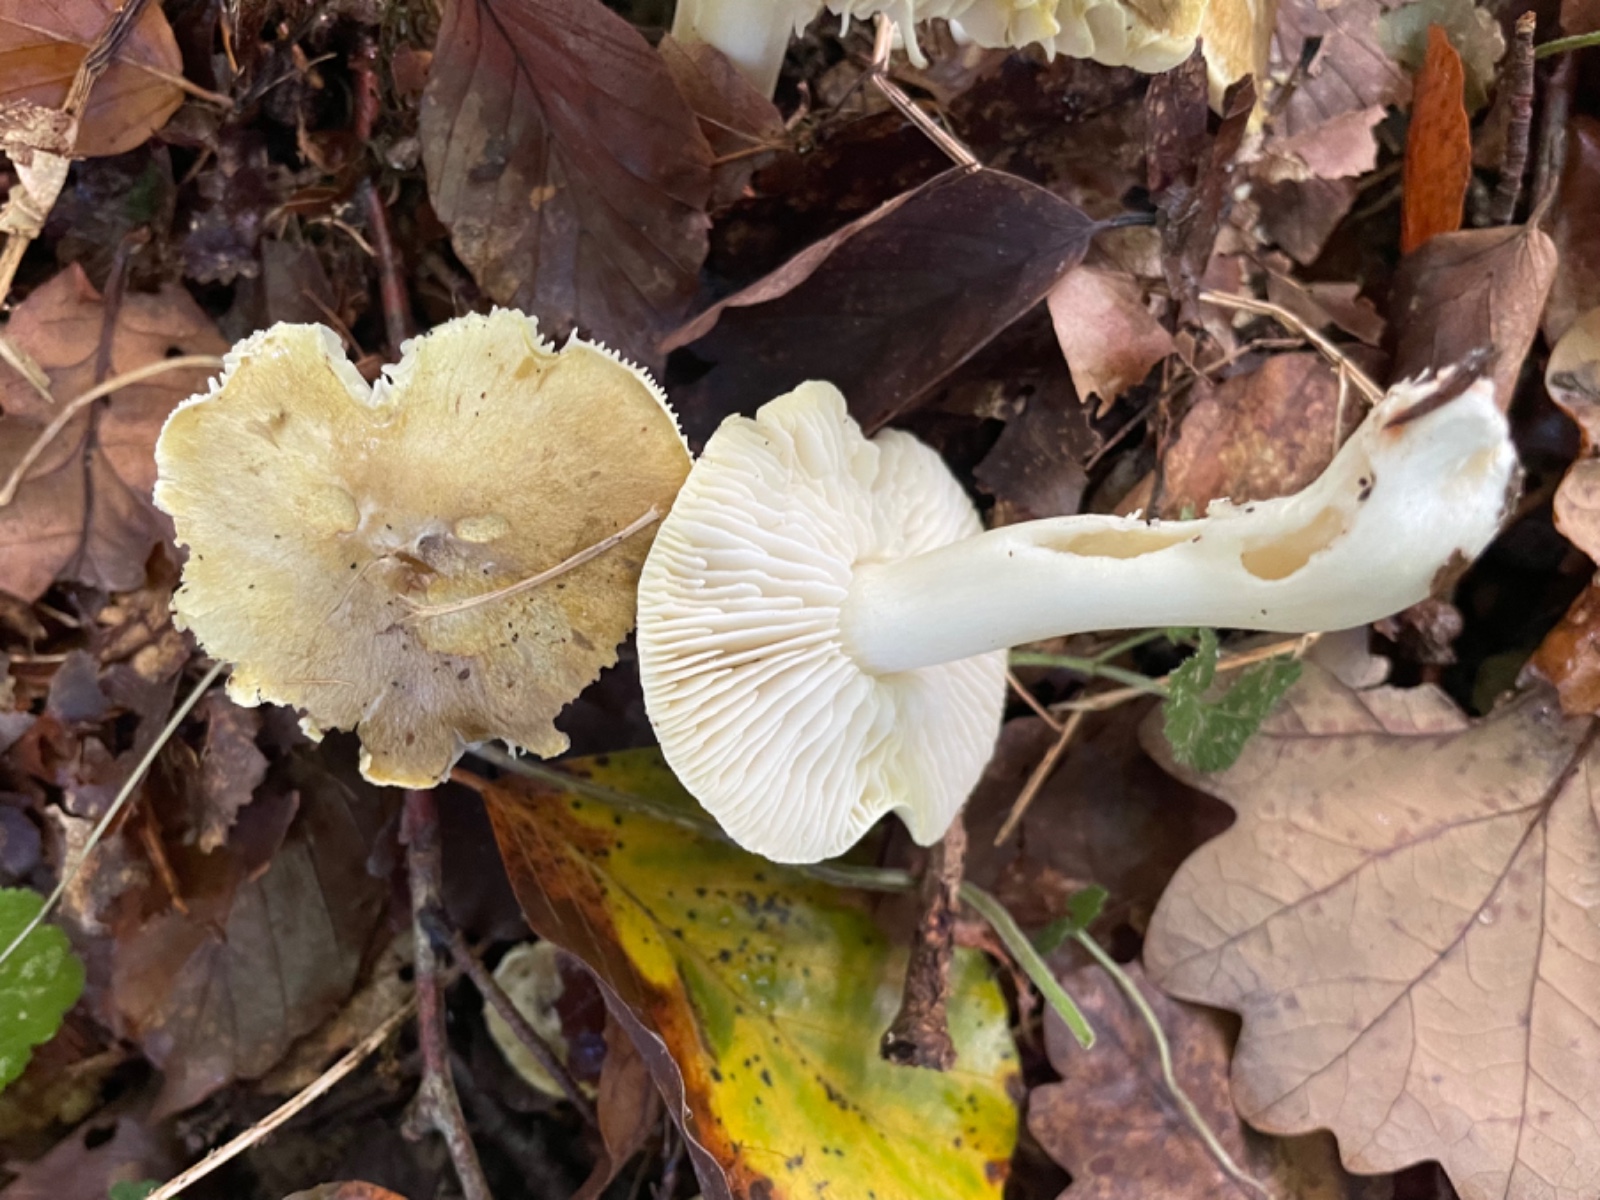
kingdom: Fungi
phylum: Basidiomycota
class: Agaricomycetes
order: Agaricales
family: Tricholomataceae
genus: Tricholoma
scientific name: Tricholoma rufenum
